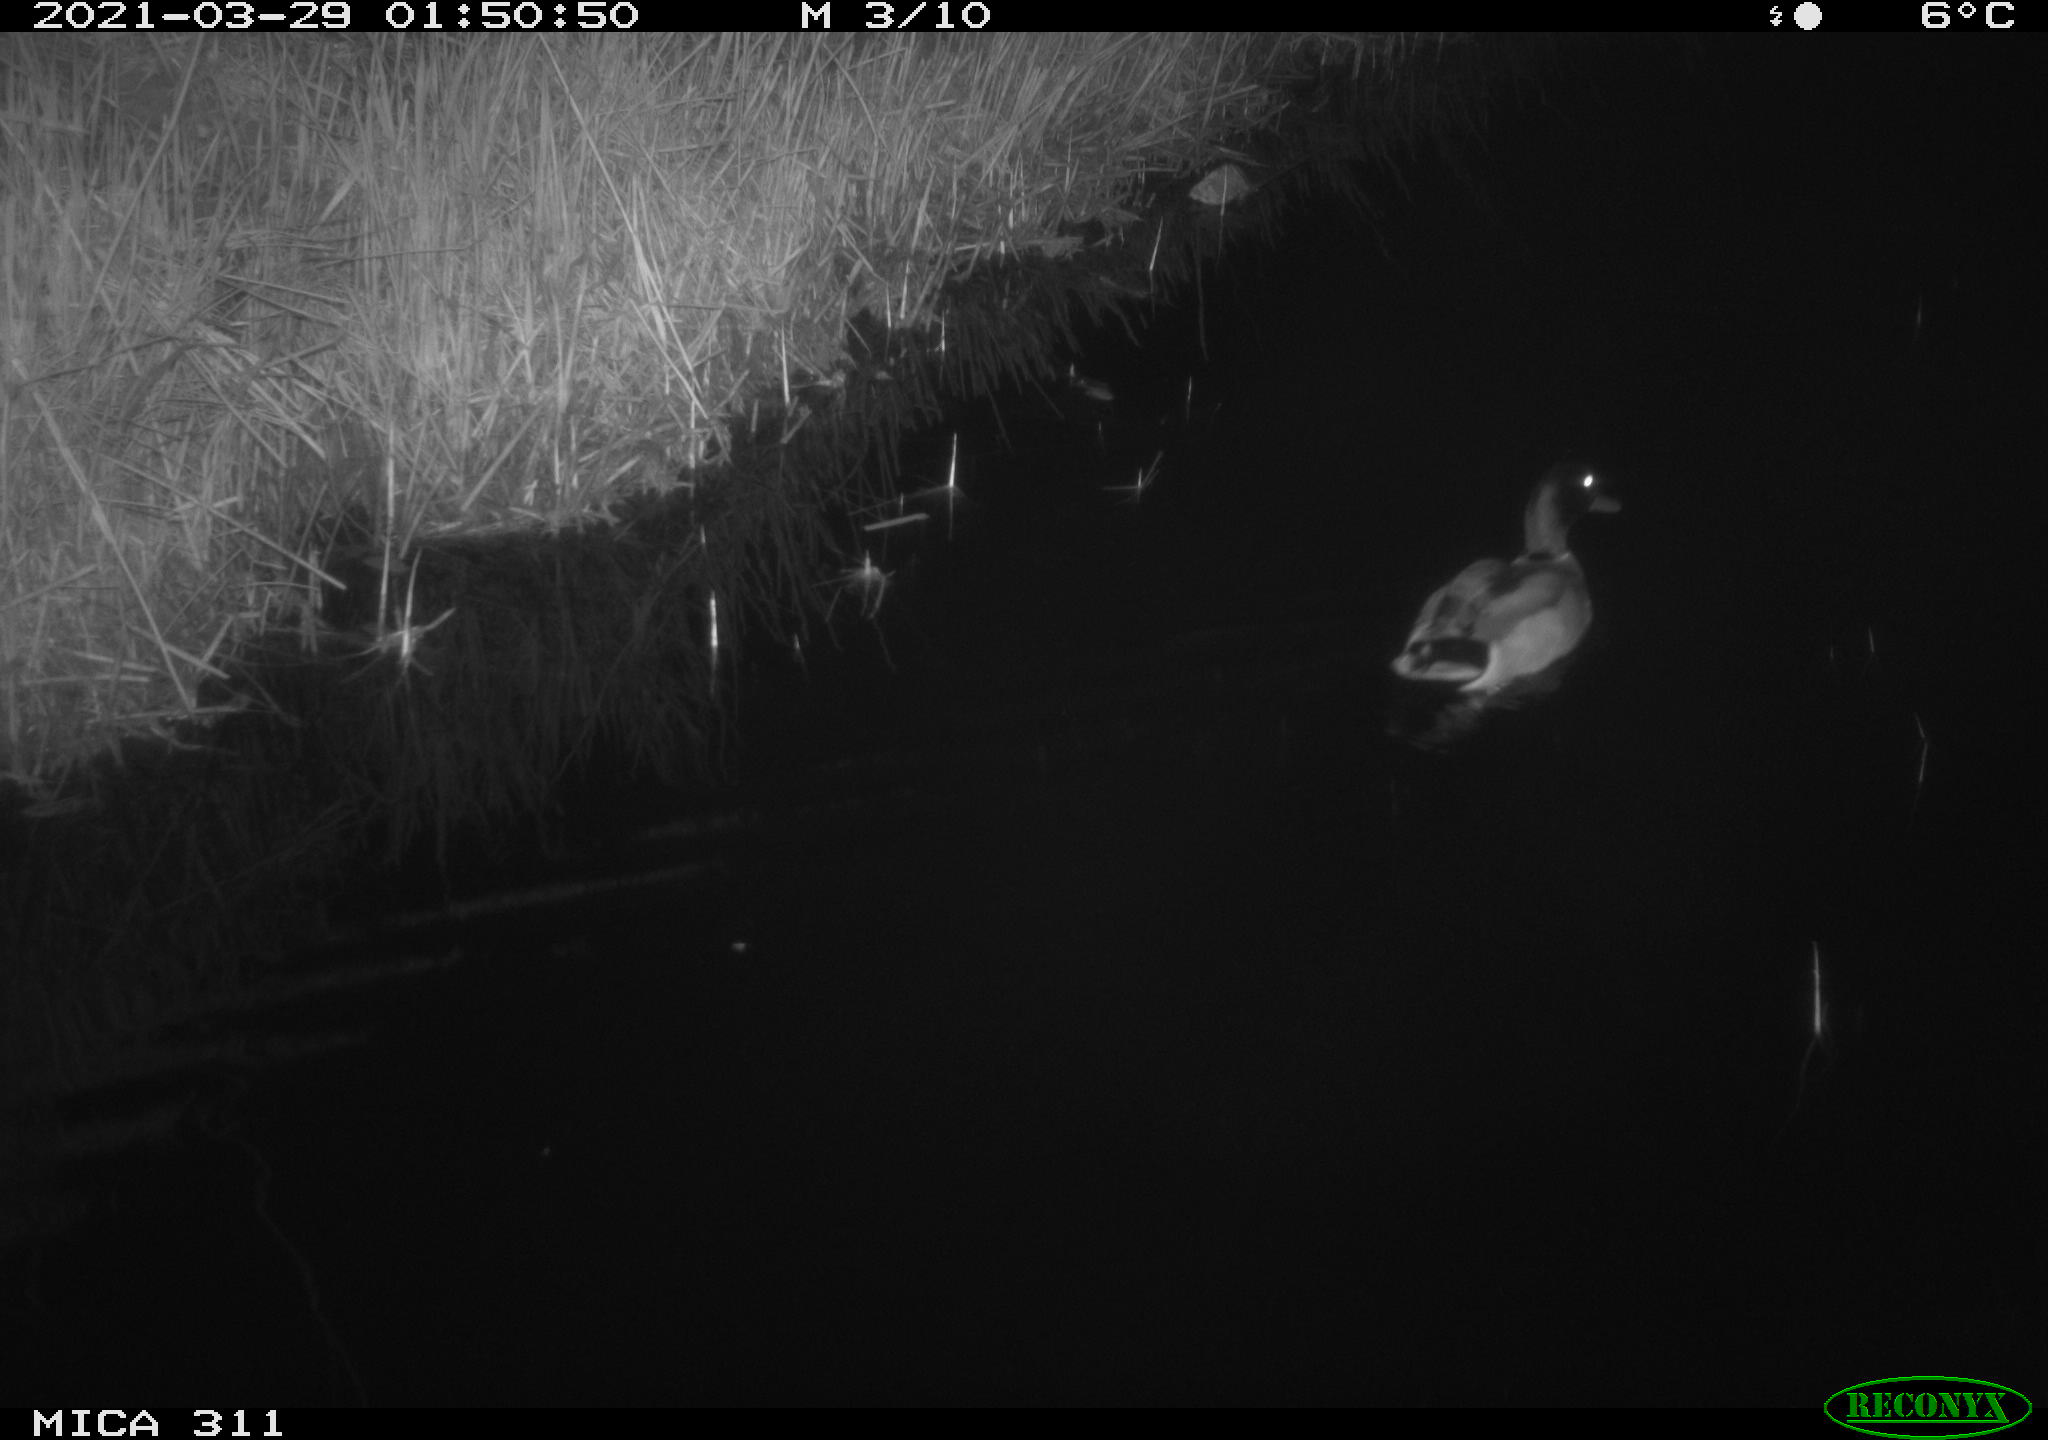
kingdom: Animalia
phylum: Chordata
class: Aves
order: Anseriformes
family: Anatidae
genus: Anas
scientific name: Anas
